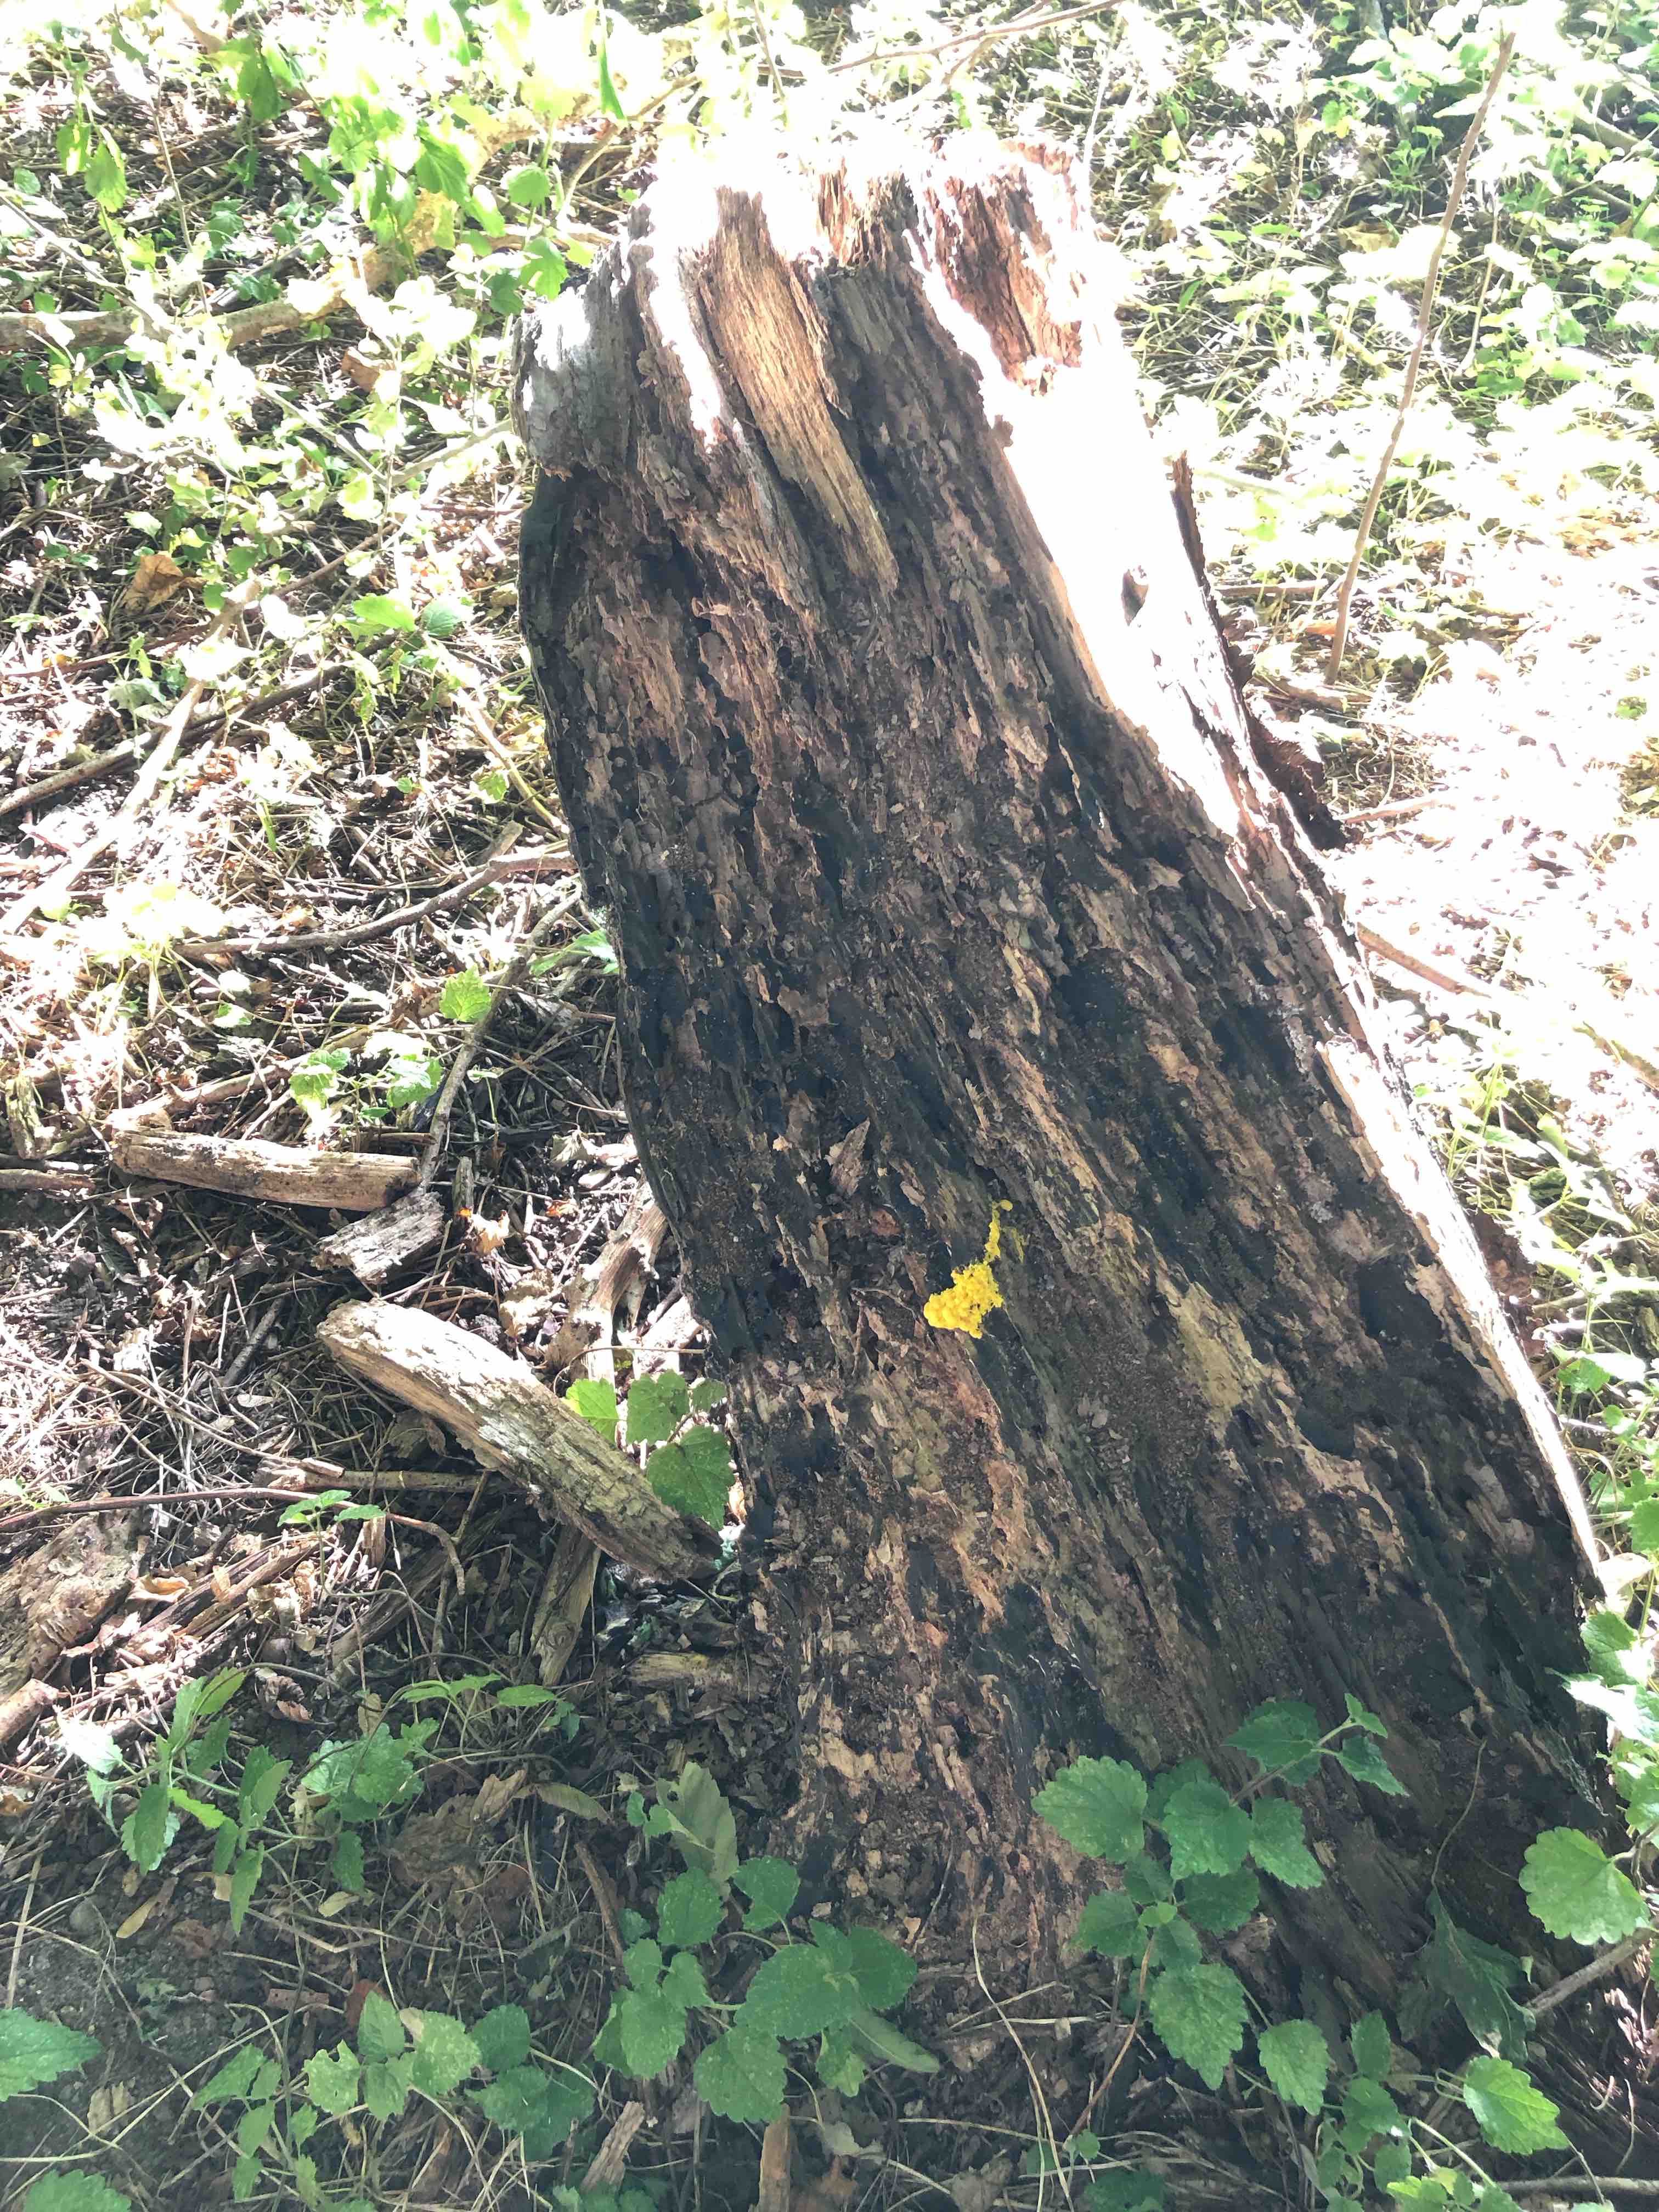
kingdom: Protozoa
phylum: Mycetozoa
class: Myxomycetes
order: Physarales
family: Physaraceae
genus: Fuligo
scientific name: Fuligo septica
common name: gul troldsmør
